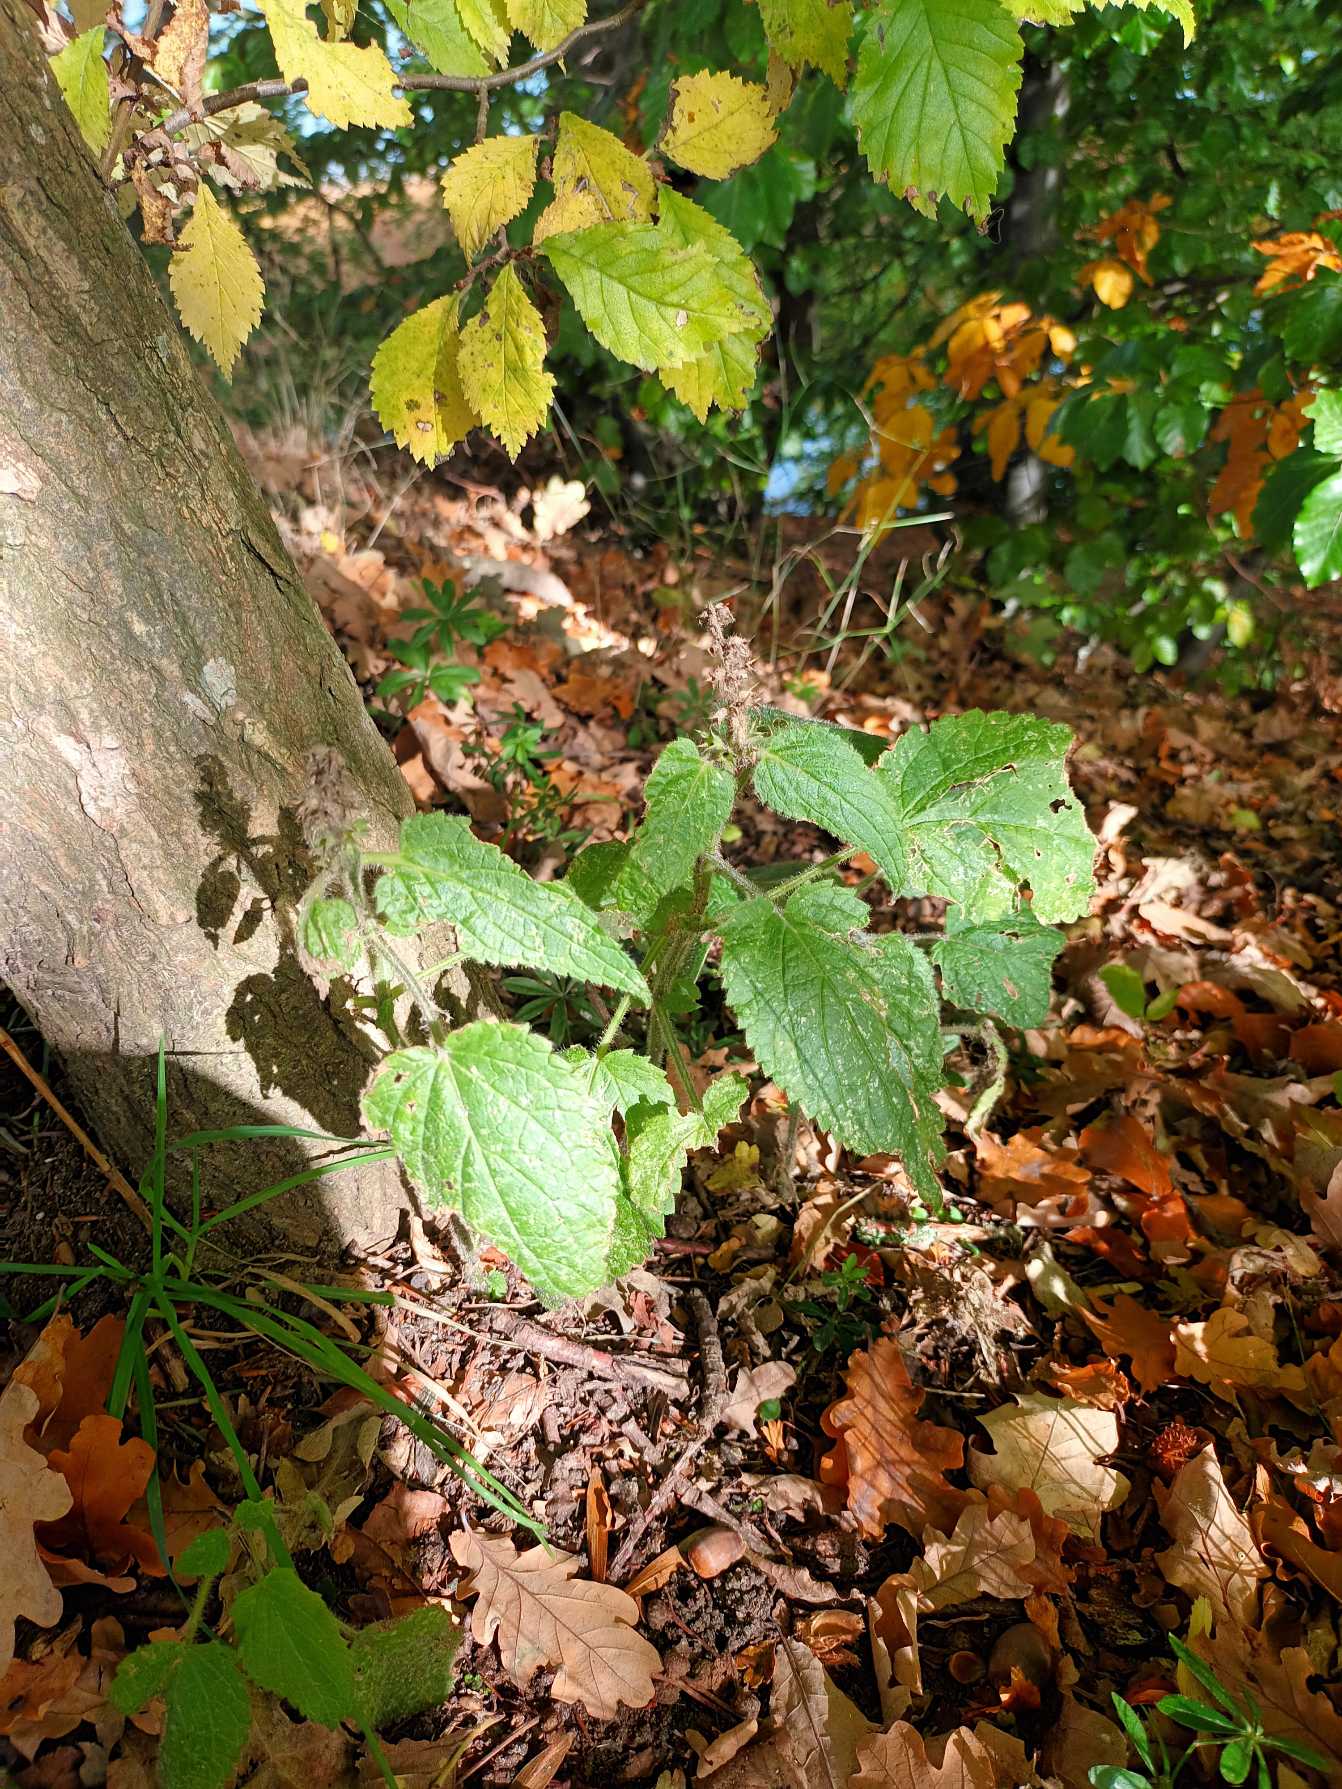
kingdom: Plantae
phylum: Tracheophyta
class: Magnoliopsida
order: Lamiales
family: Lamiaceae
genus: Stachys
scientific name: Stachys sylvatica
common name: Skov-galtetand
